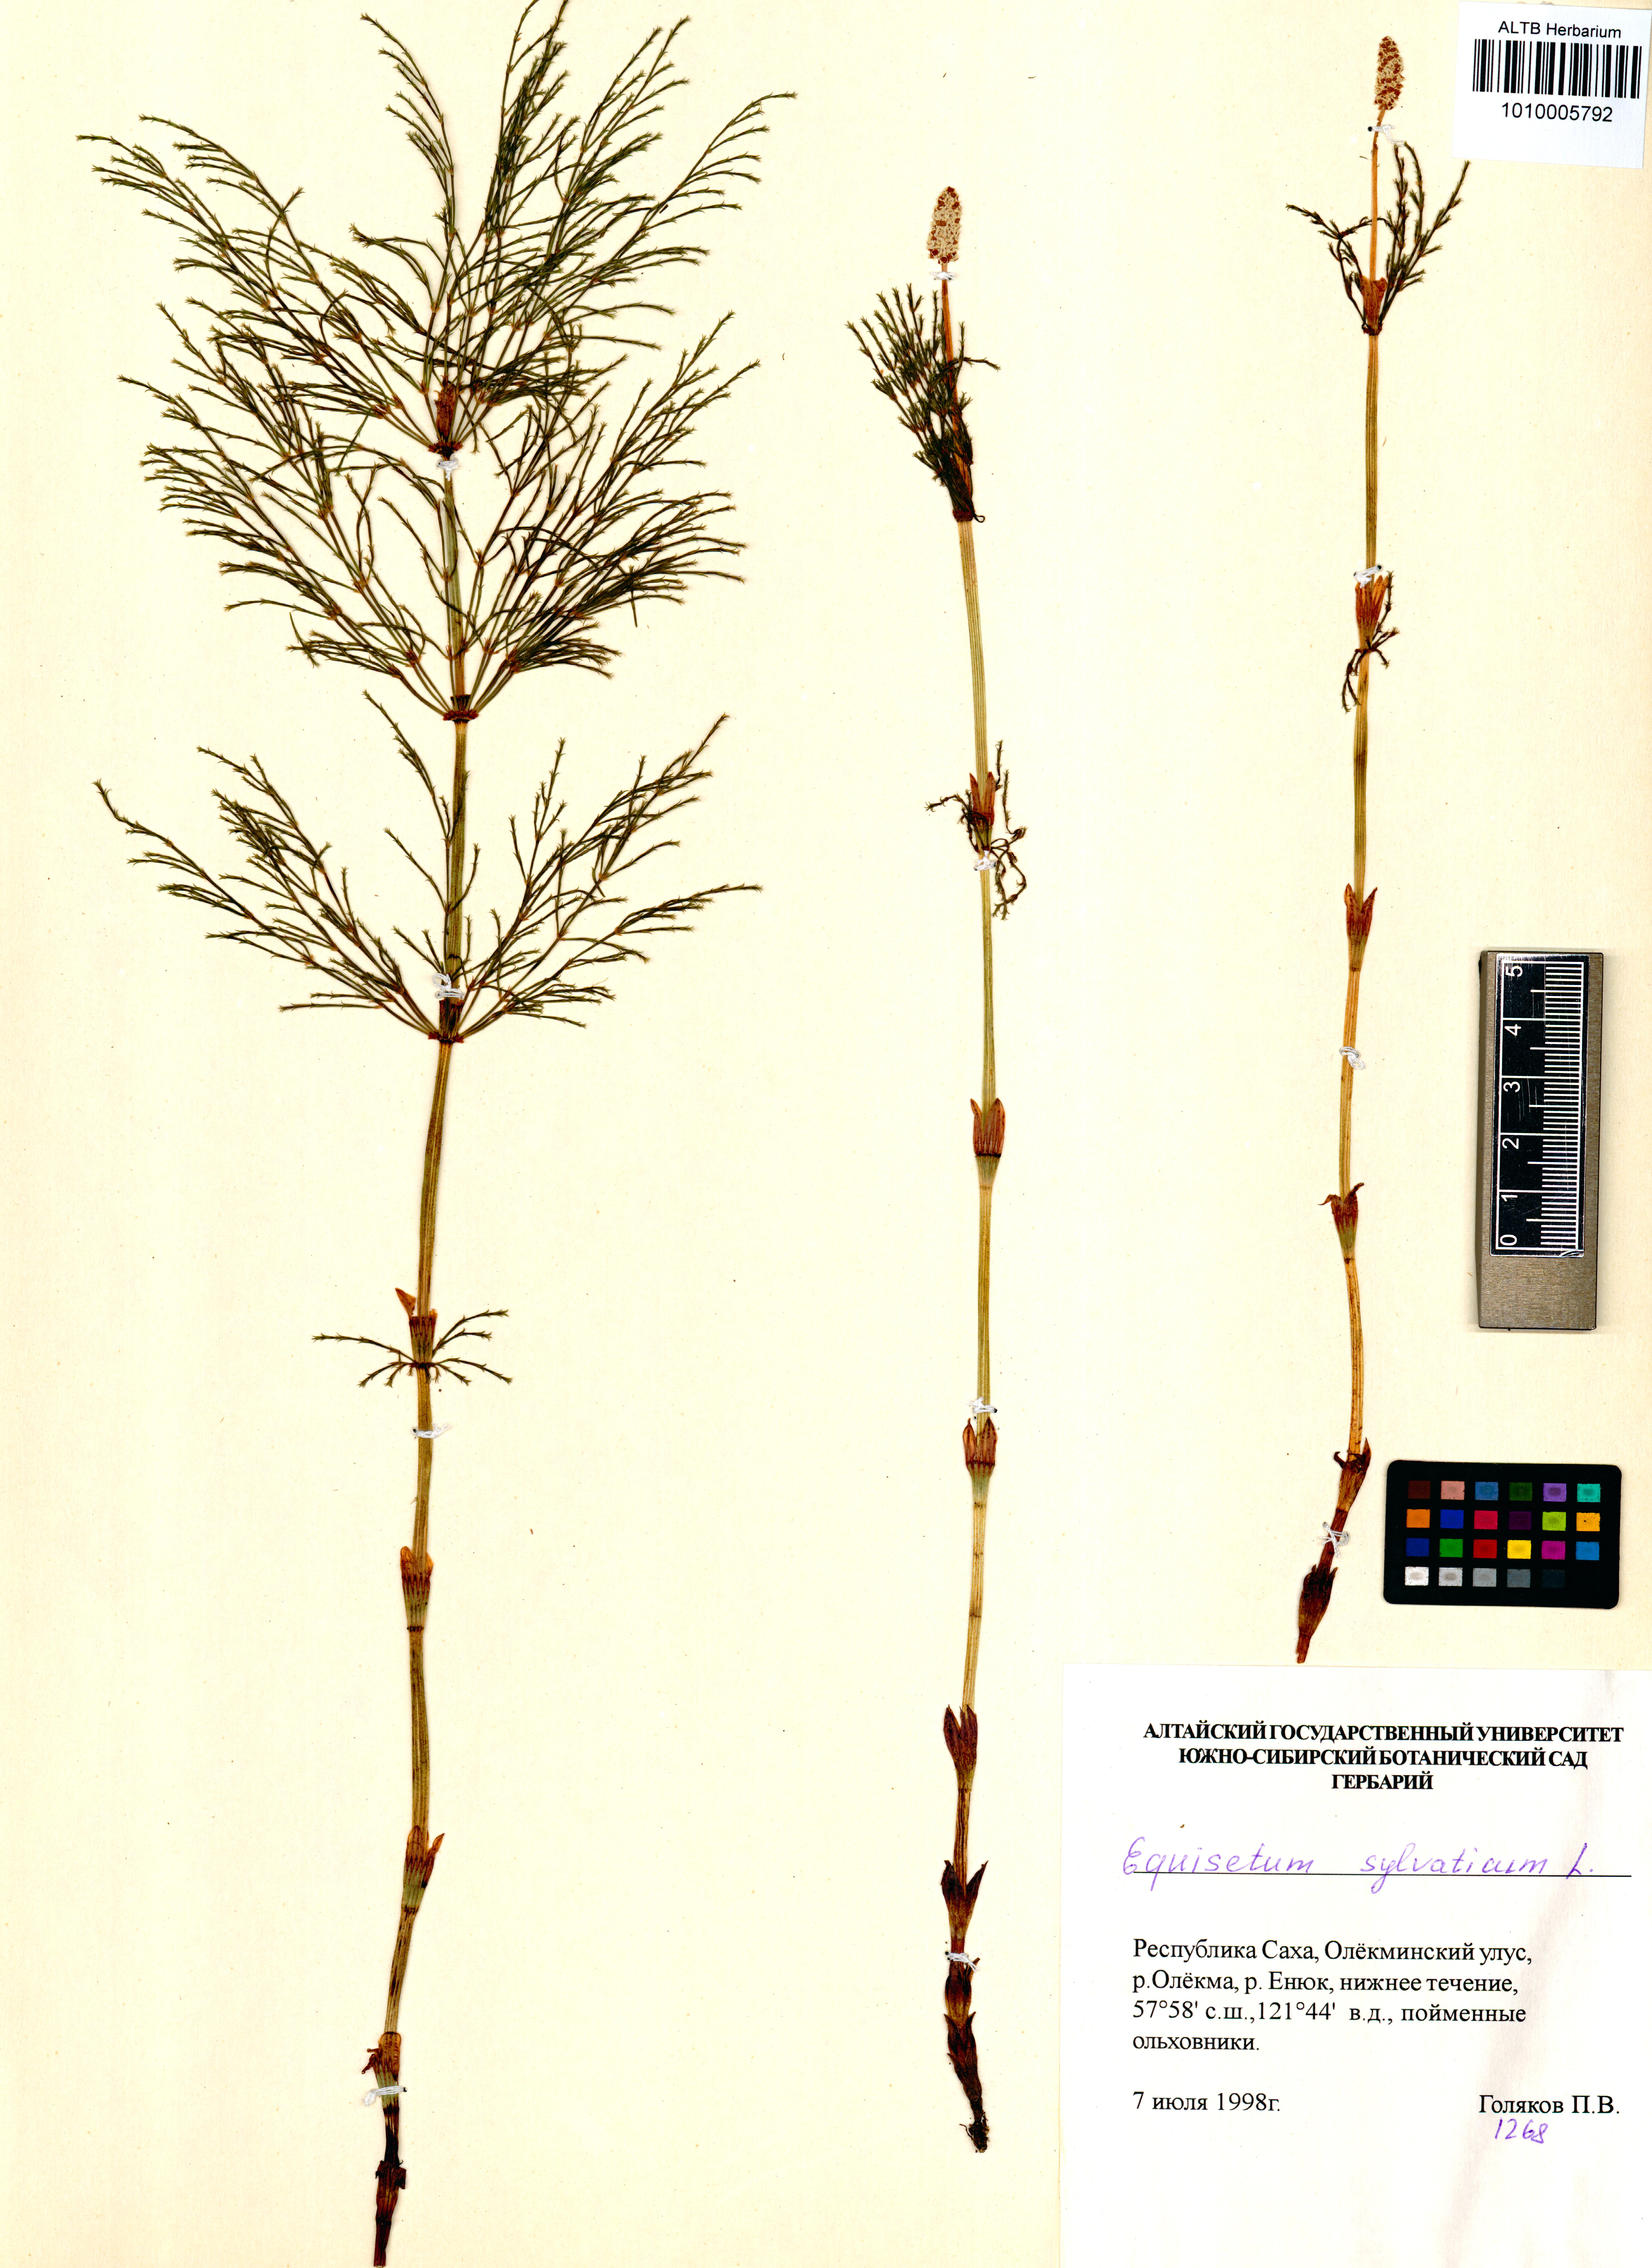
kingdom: Plantae
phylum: Tracheophyta
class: Polypodiopsida
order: Equisetales
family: Equisetaceae
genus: Equisetum
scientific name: Equisetum sylvaticum
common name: Wood horsetail
